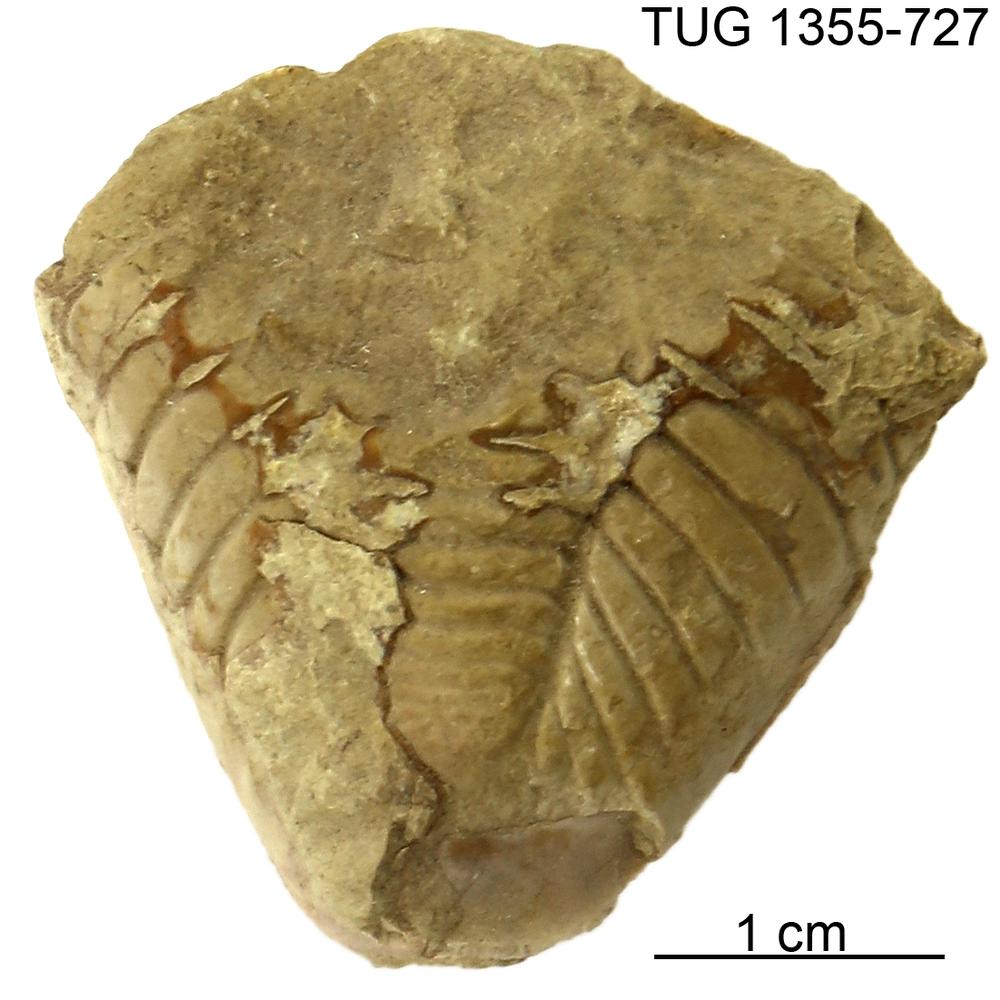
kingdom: Animalia
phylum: Arthropoda
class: Trilobita
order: Phacopida
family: Pterygometopidae
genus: Toxochasmops
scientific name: Toxochasmops proavus
